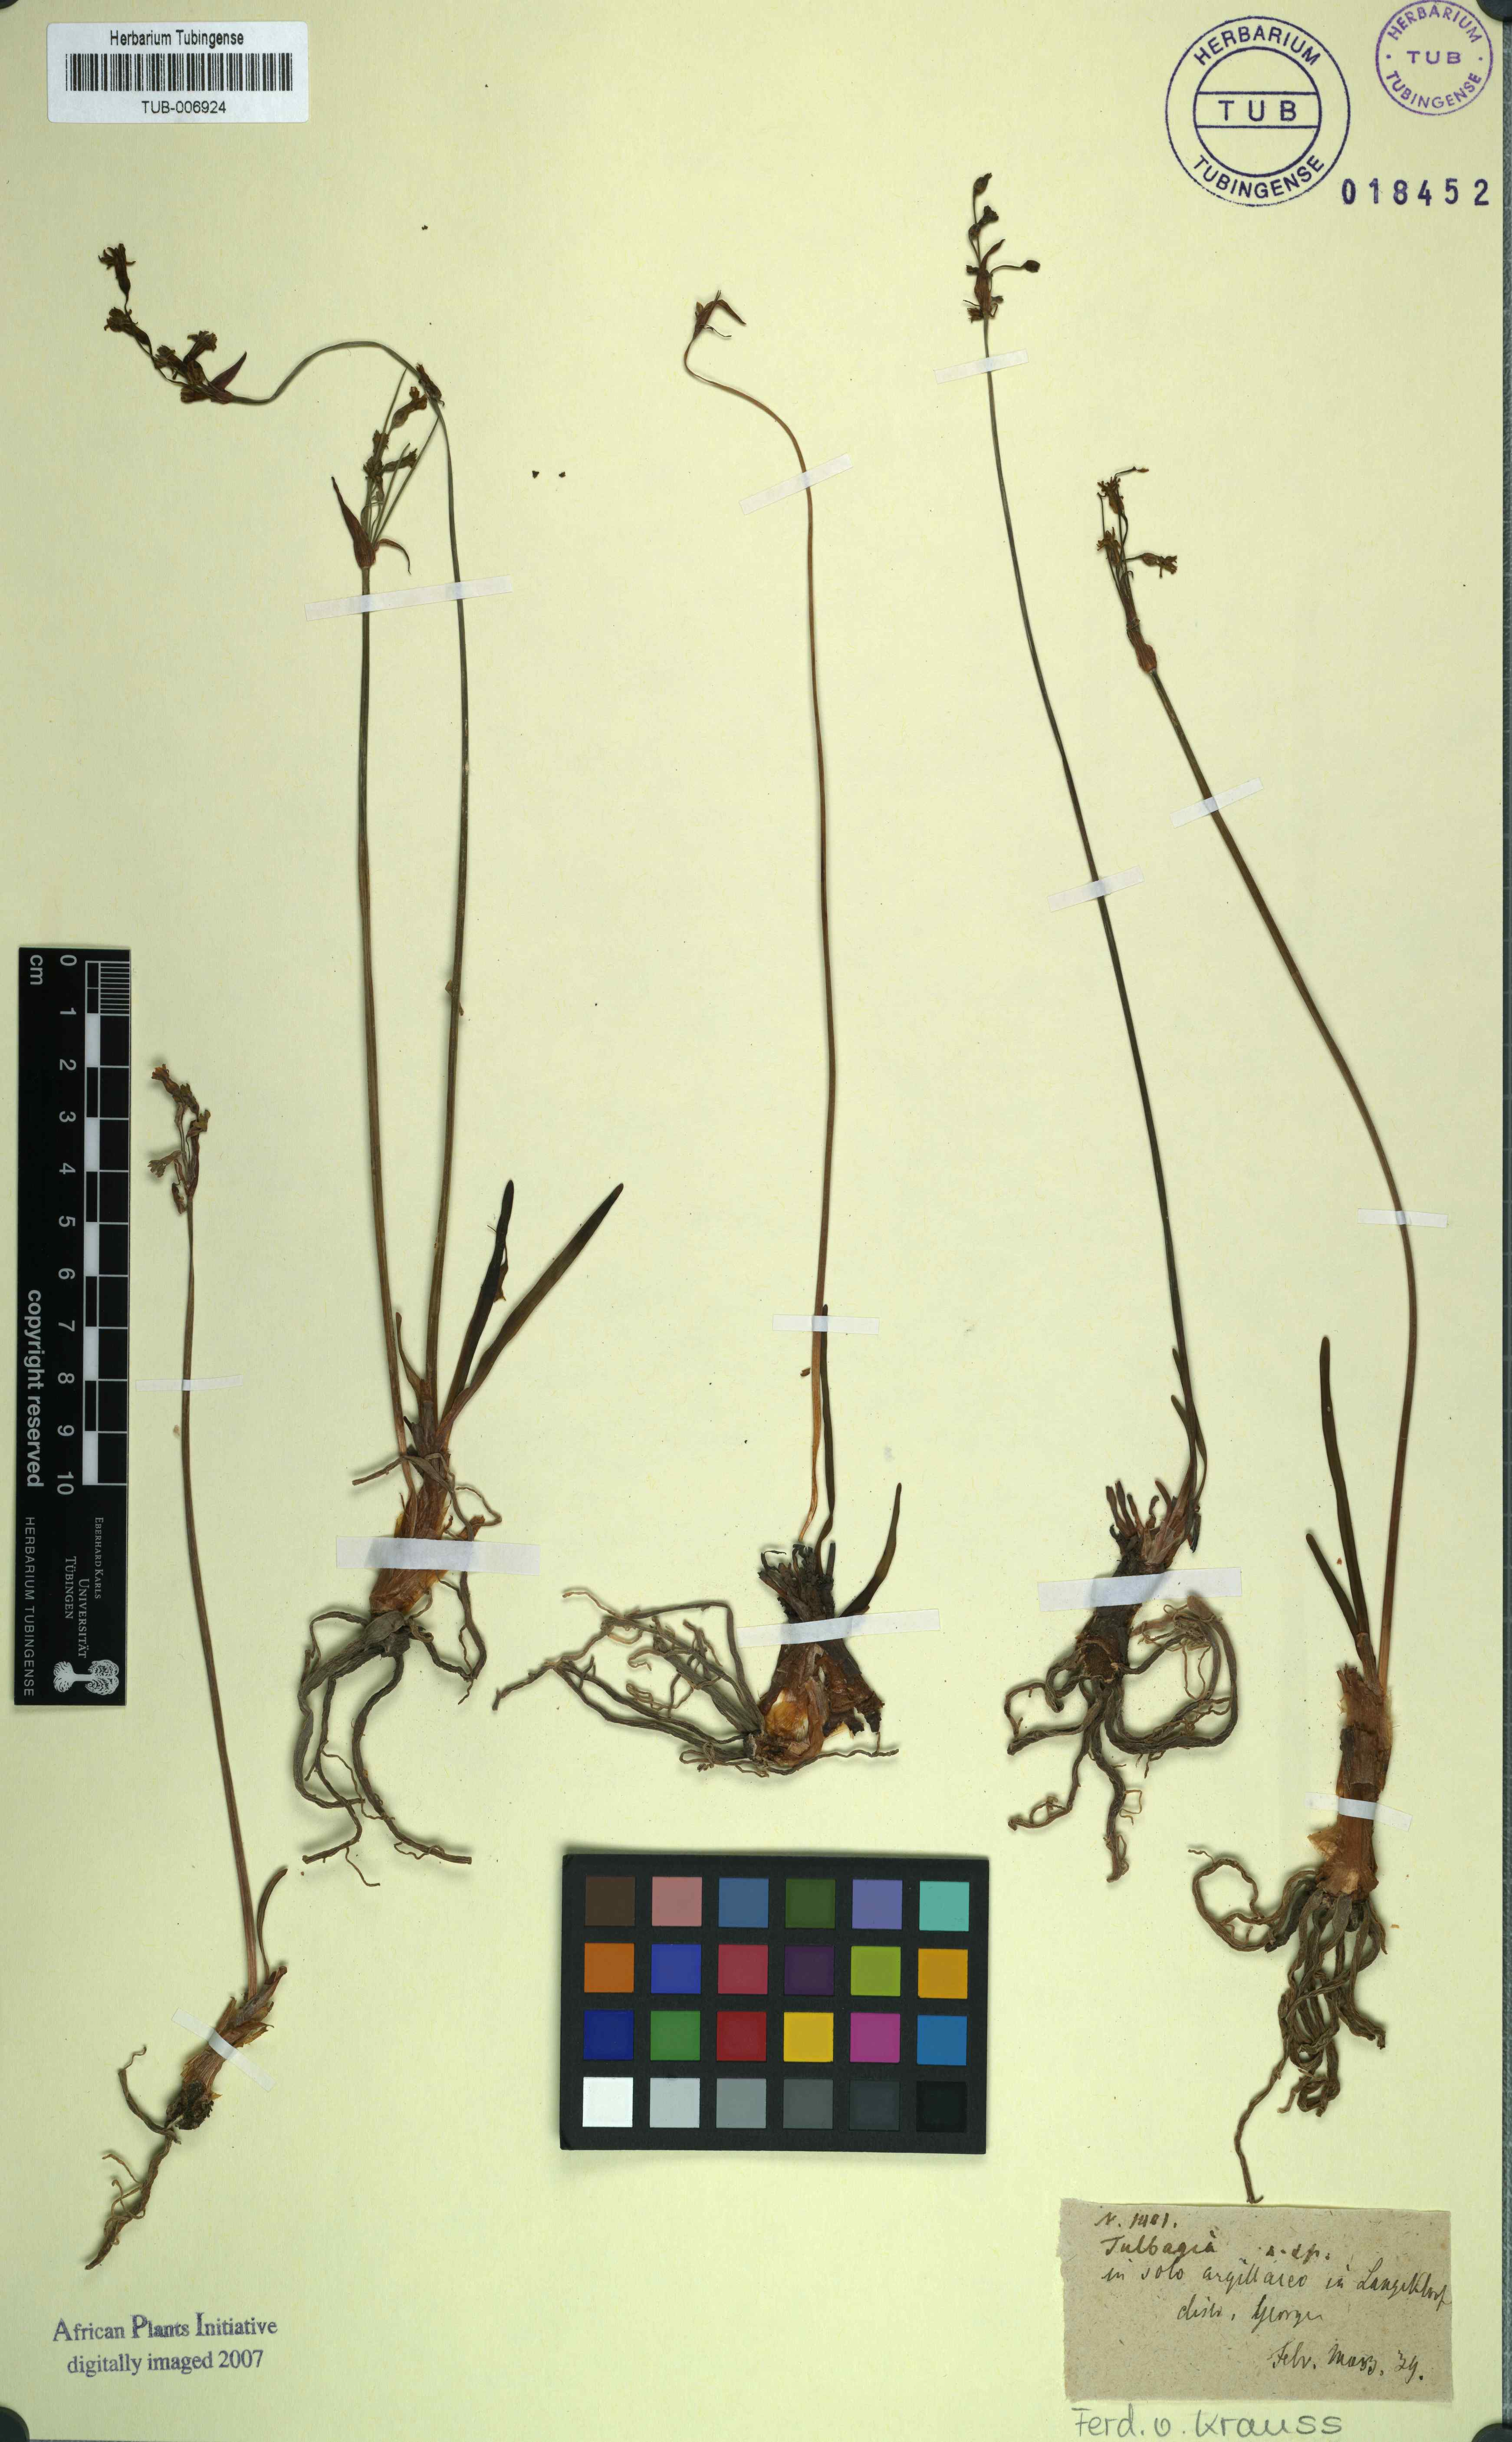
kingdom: Plantae
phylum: Tracheophyta
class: Liliopsida
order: Asparagales
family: Amaryllidaceae
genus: Tulbaghia
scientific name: Tulbaghia
